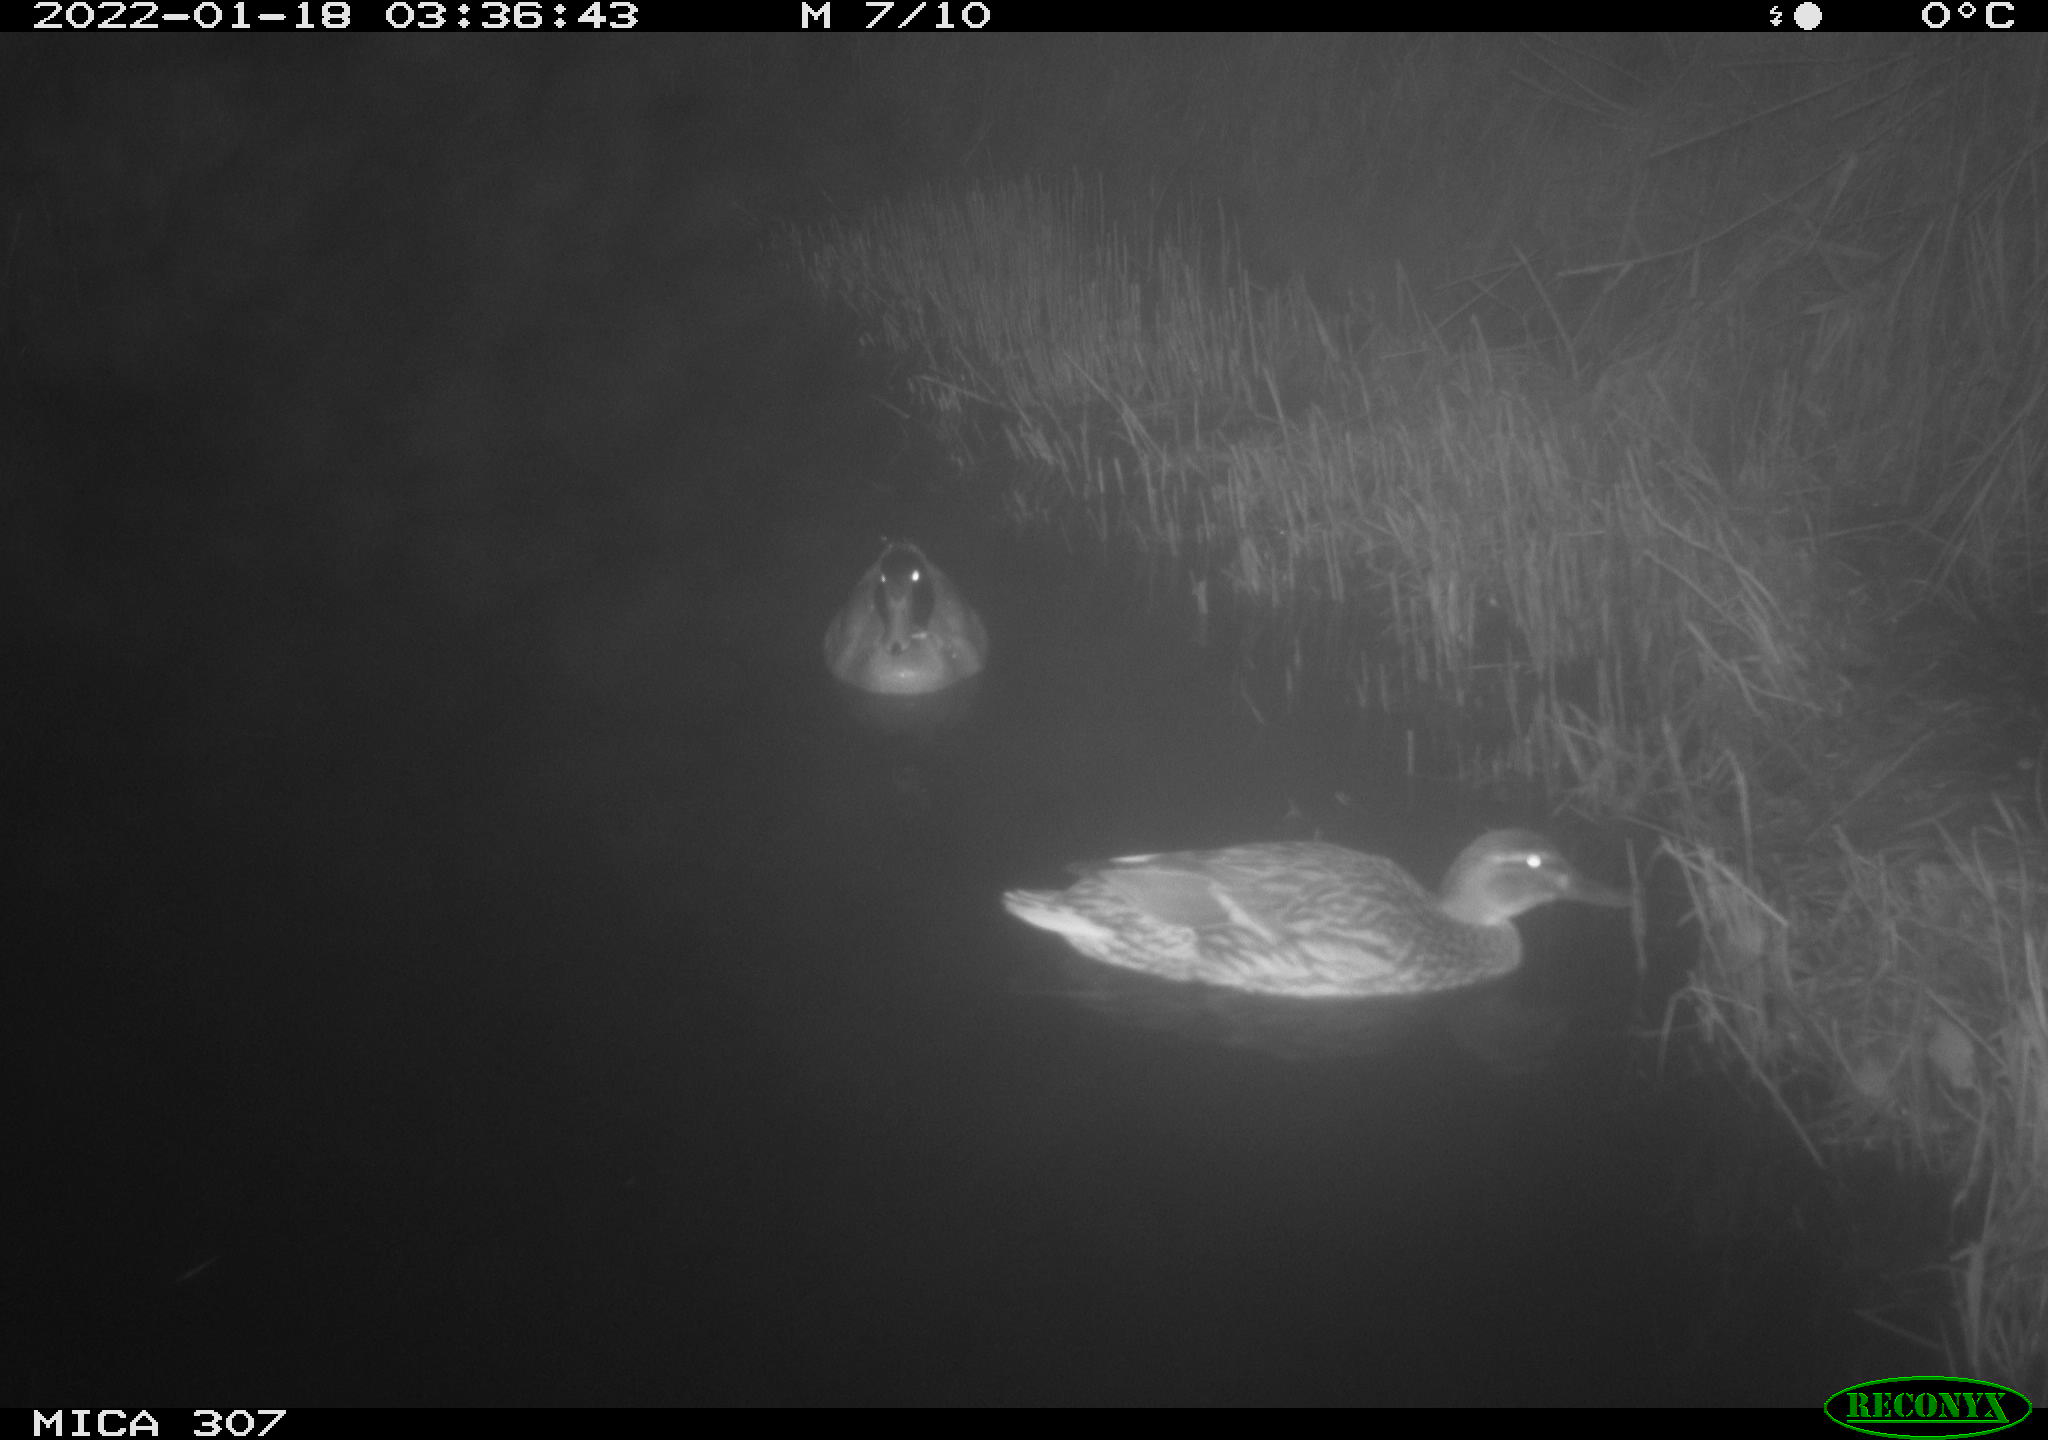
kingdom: Animalia
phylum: Chordata
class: Mammalia
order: Rodentia
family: Muridae
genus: Rattus
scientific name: Rattus norvegicus
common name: Brown rat
